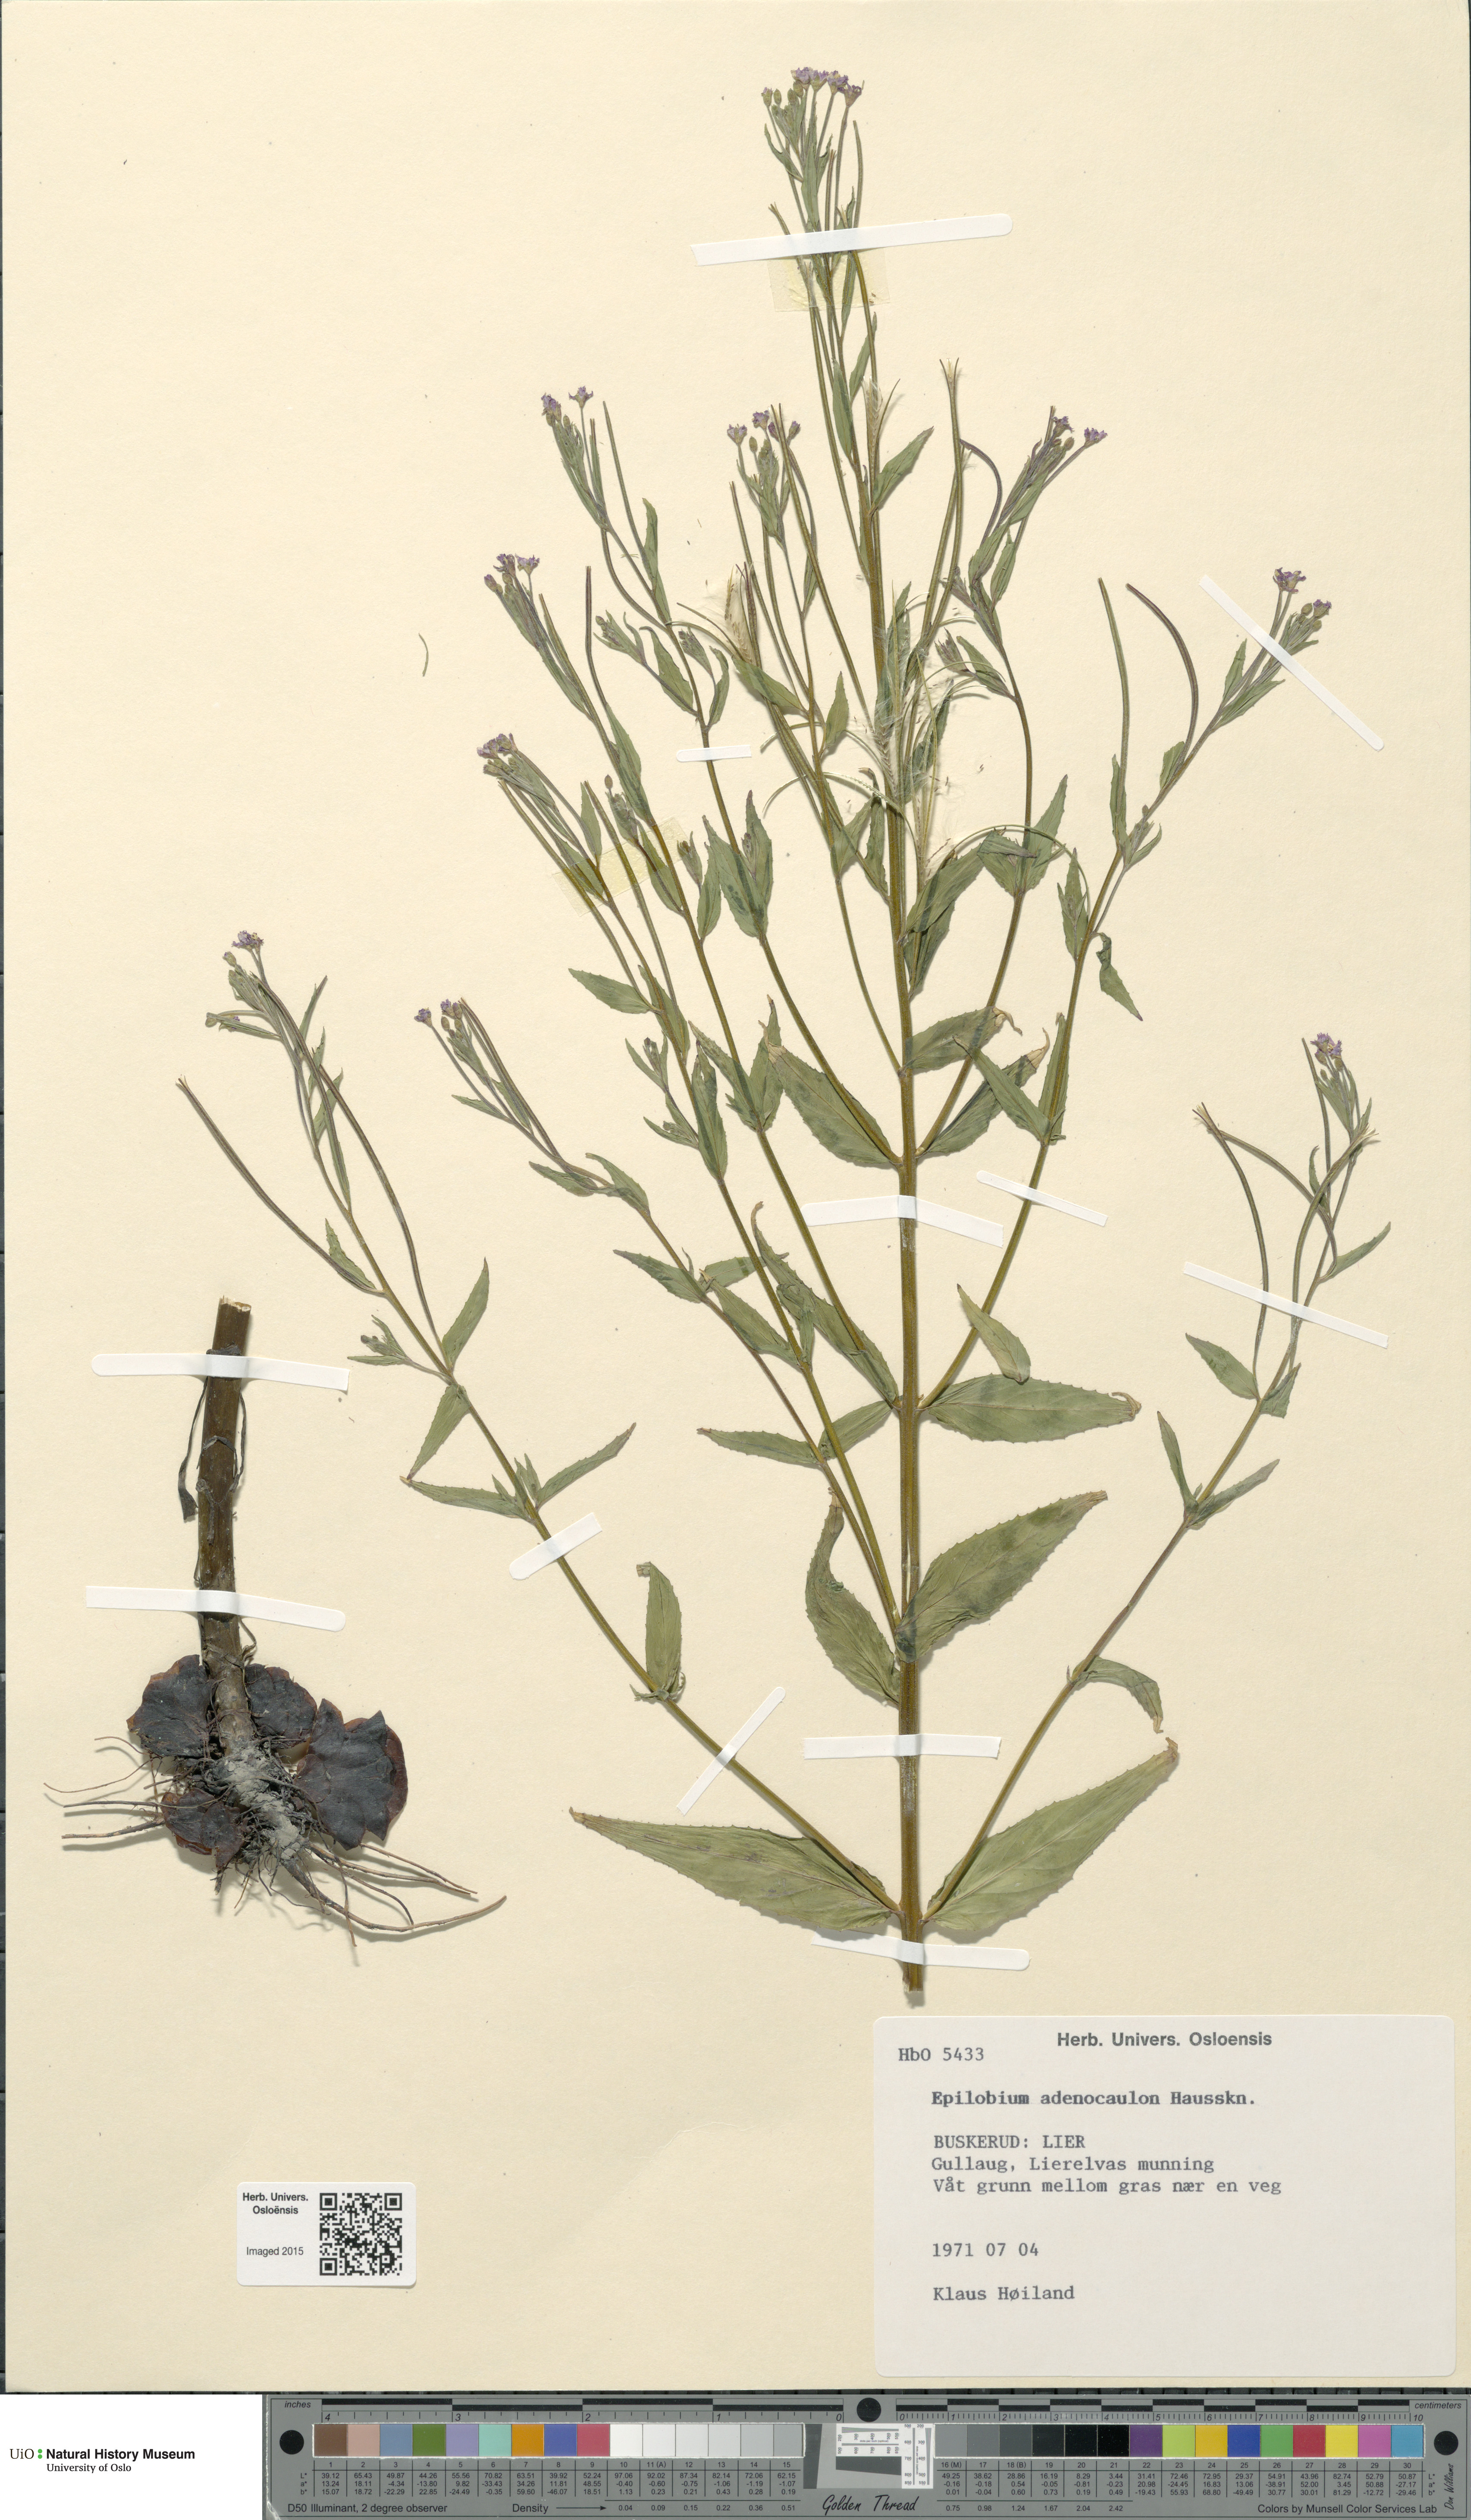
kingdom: Plantae
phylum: Tracheophyta
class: Magnoliopsida
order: Myrtales
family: Onagraceae
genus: Epilobium
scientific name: Epilobium ciliatum
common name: American willowherb
